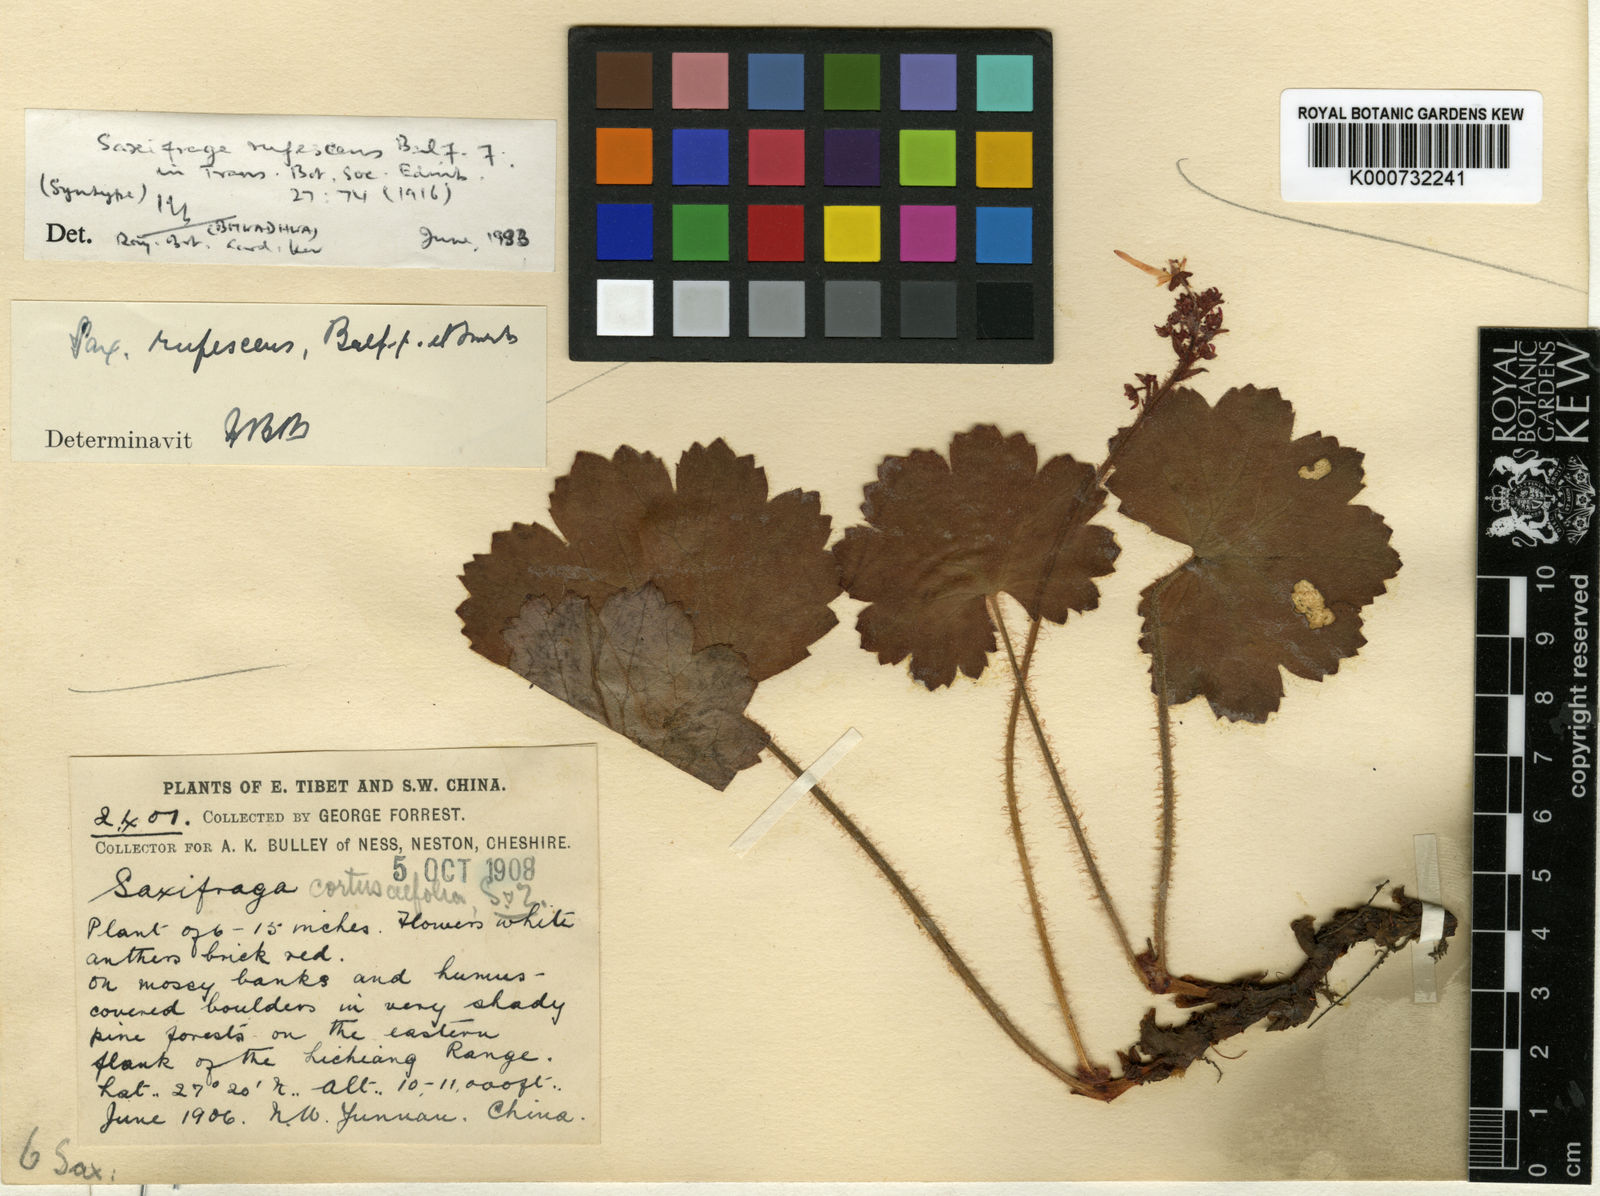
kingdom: Plantae
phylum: Tracheophyta
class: Magnoliopsida
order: Saxifragales
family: Saxifragaceae
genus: Saxifraga
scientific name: Saxifraga rufescens
